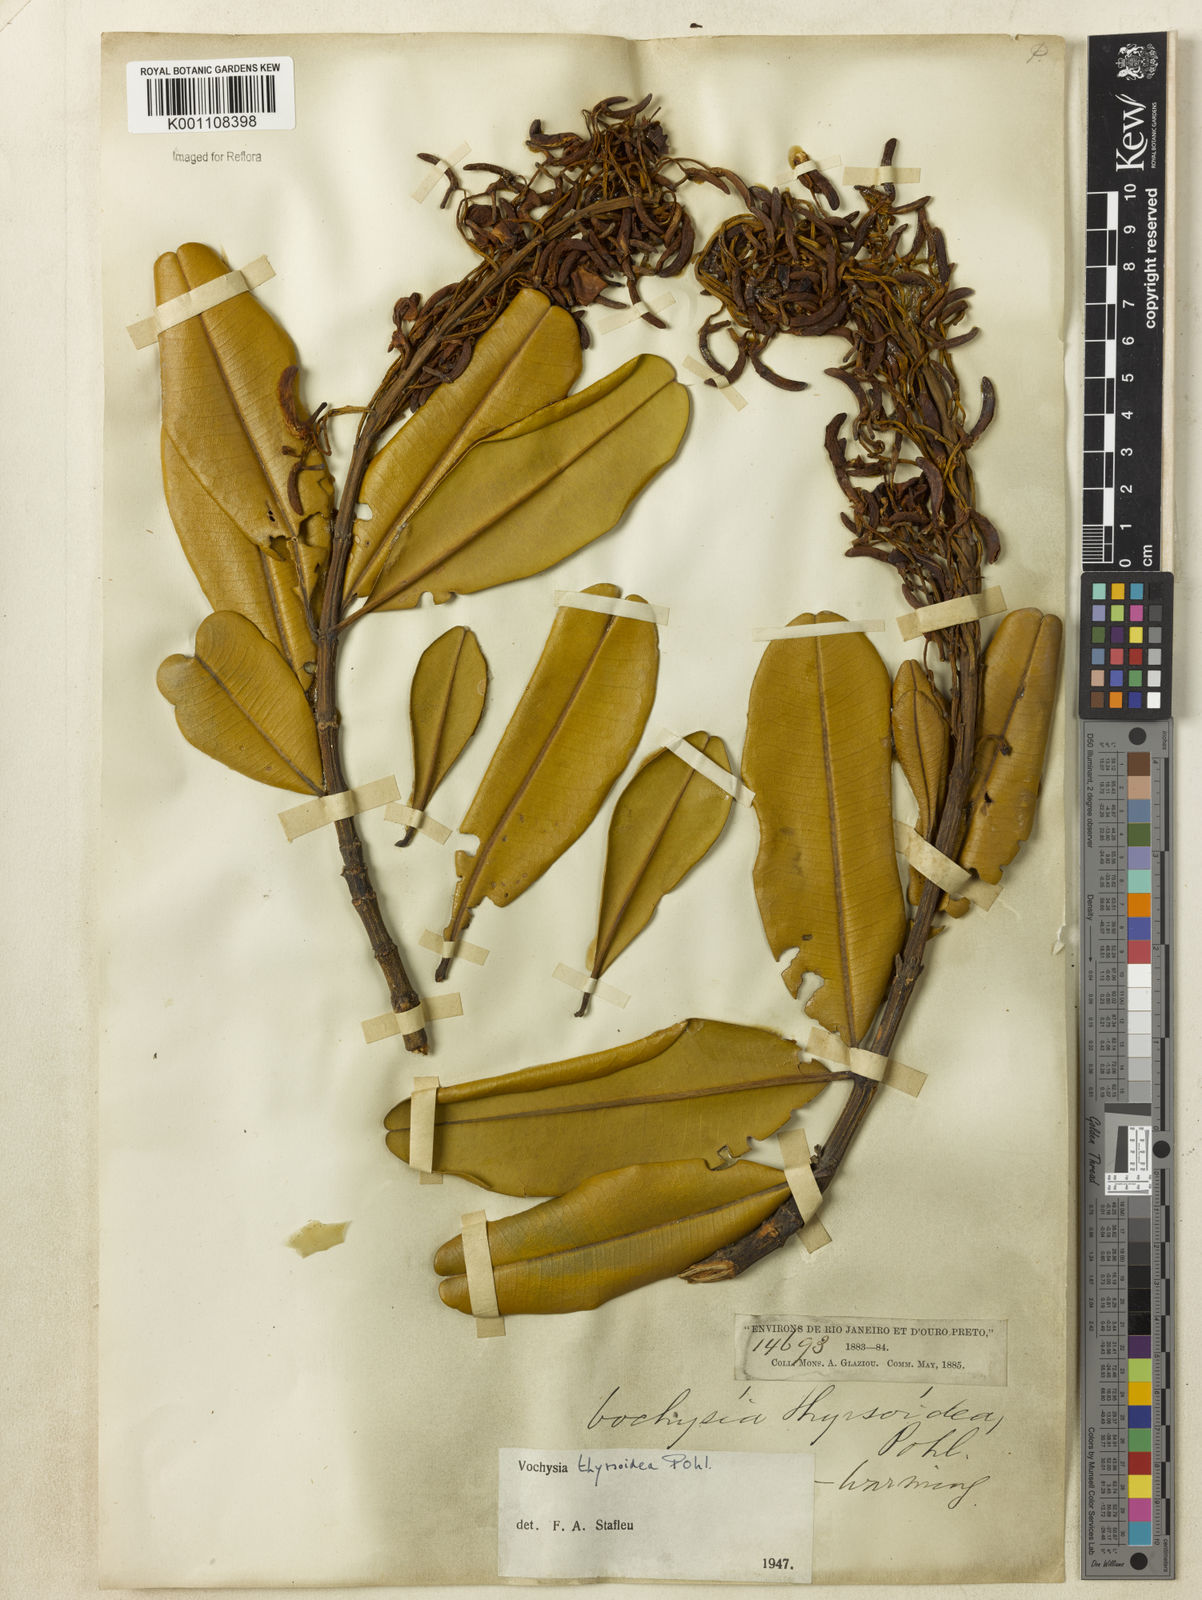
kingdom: Plantae
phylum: Tracheophyta
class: Magnoliopsida
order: Myrtales
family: Vochysiaceae
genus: Vochysia
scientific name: Vochysia thyrsoidea
